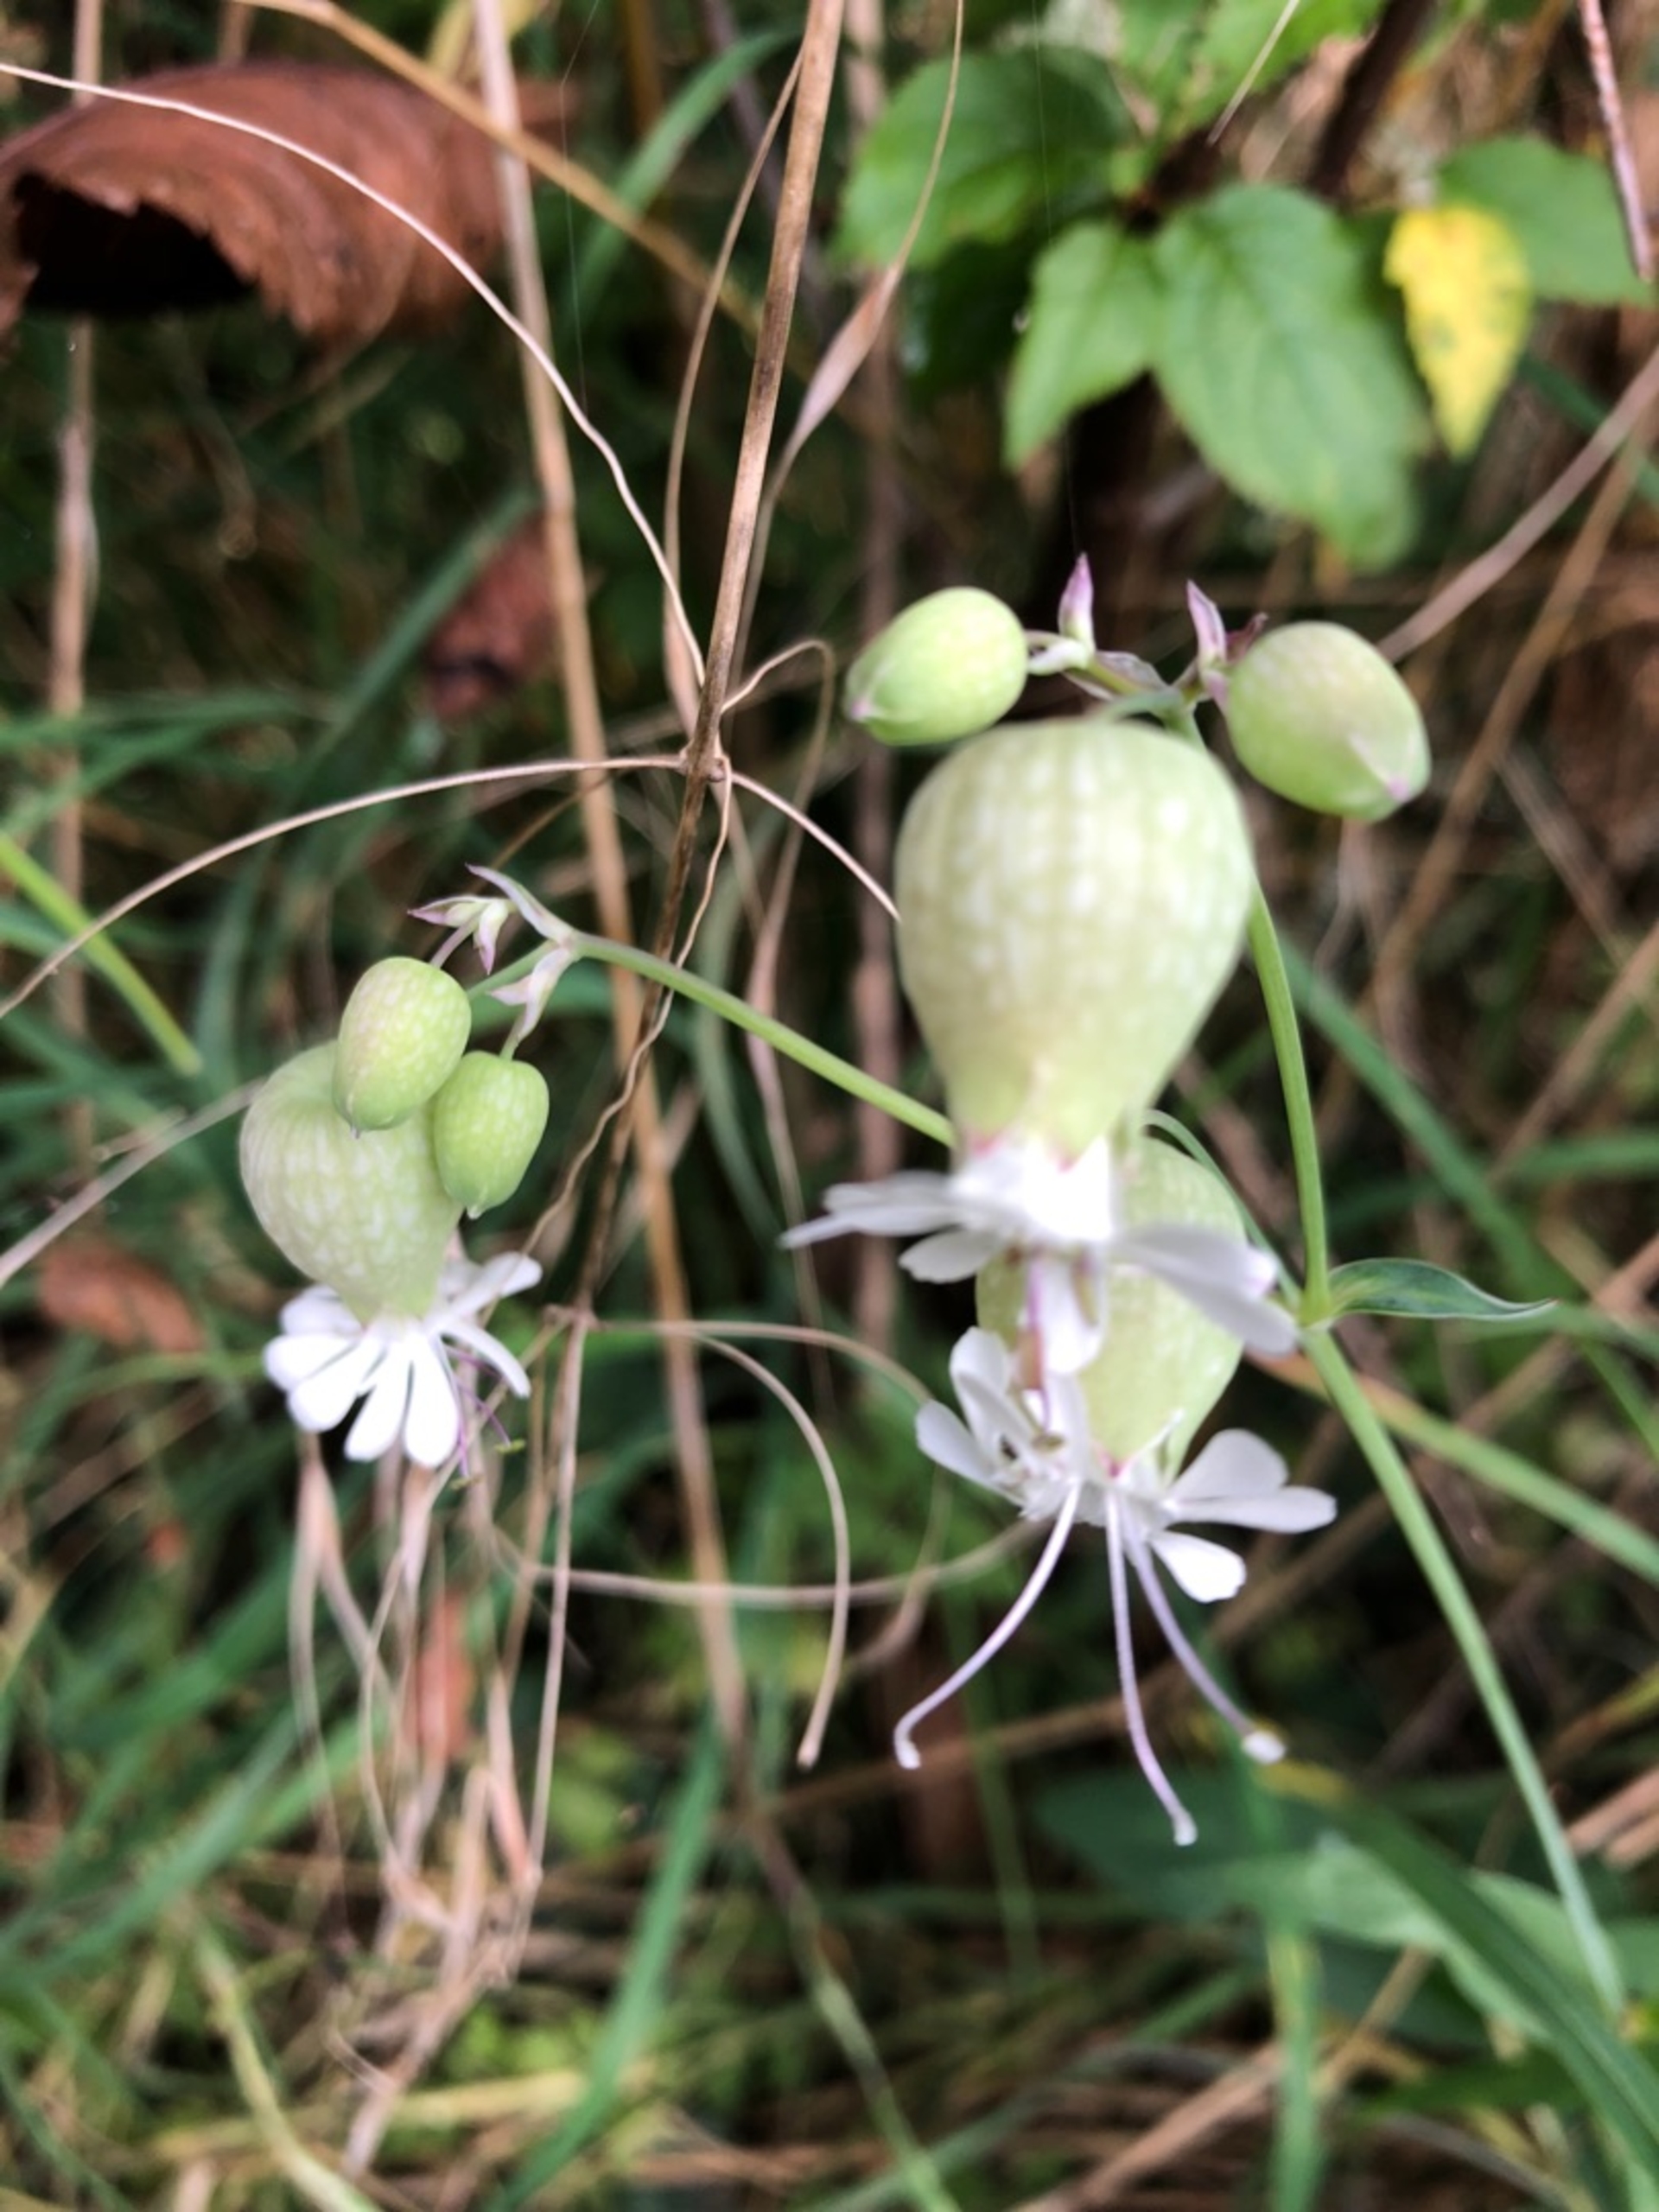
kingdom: Plantae
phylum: Tracheophyta
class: Magnoliopsida
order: Caryophyllales
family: Caryophyllaceae
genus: Silene
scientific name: Silene vulgaris
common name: Blæresmælde
